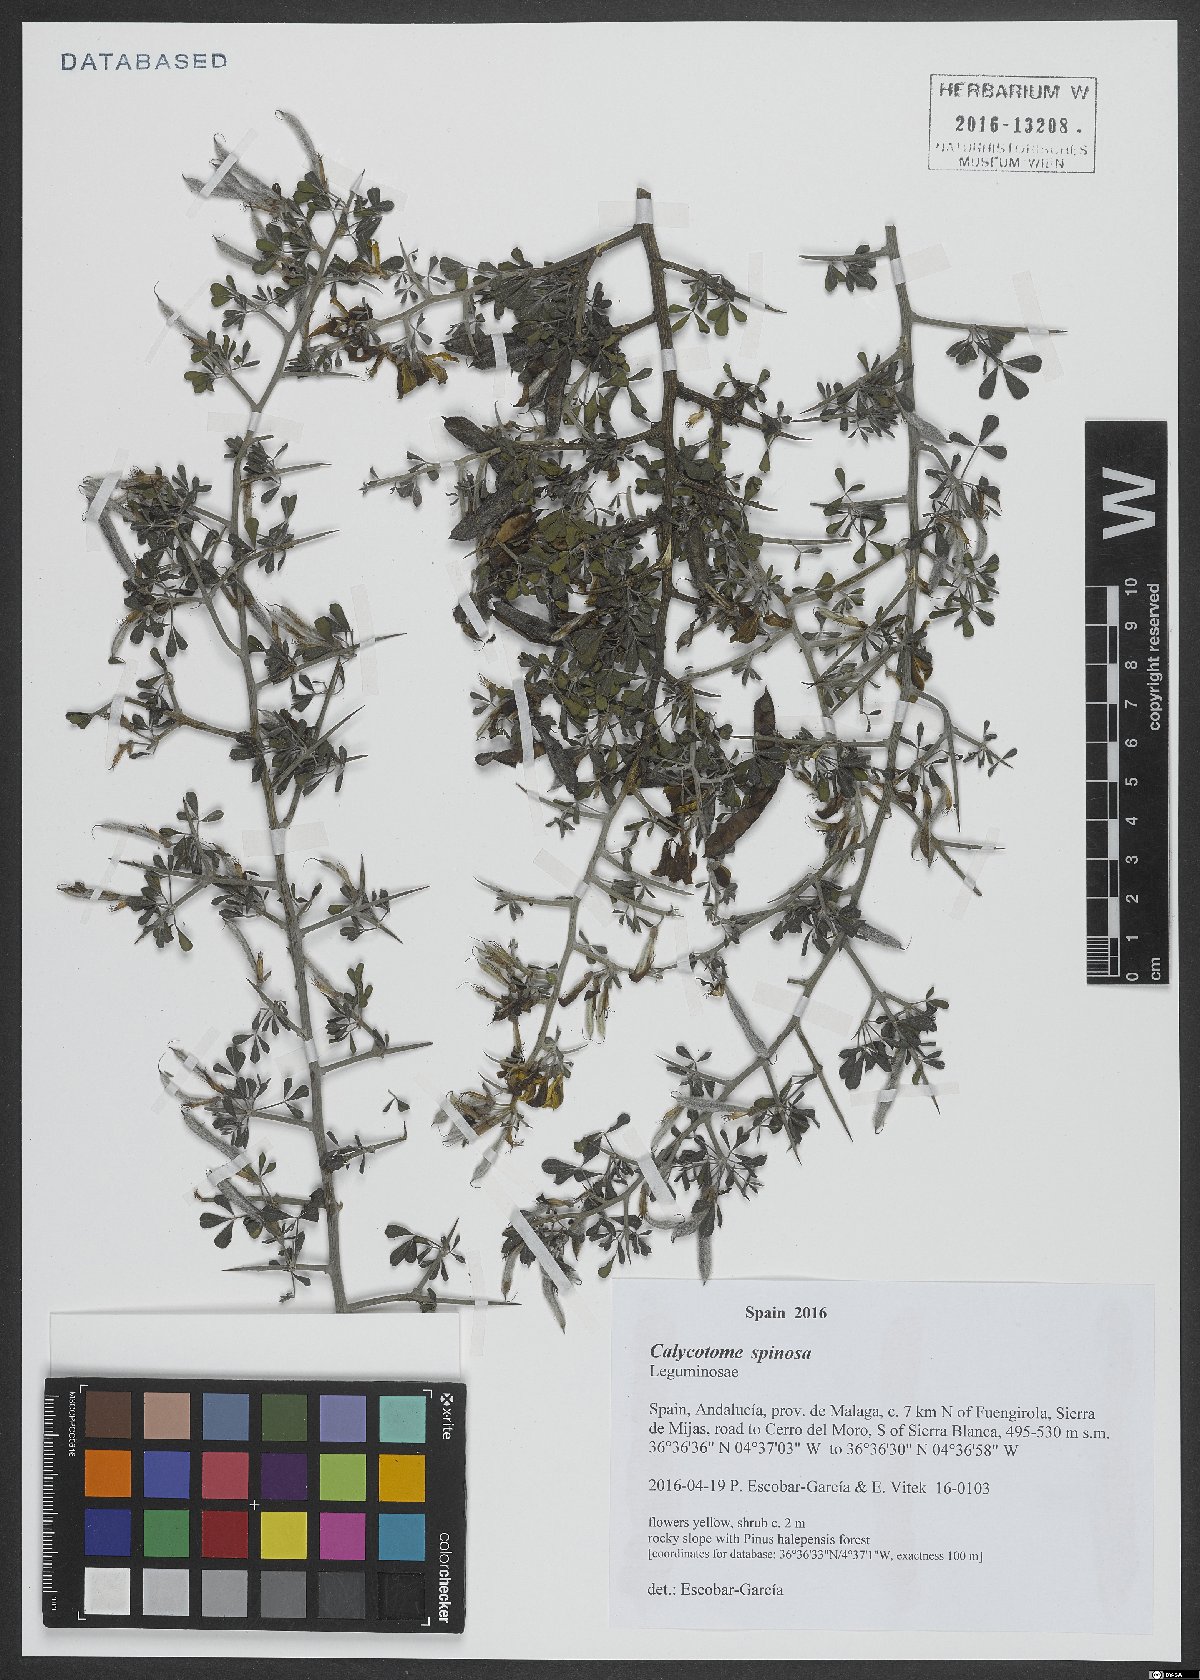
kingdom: Plantae
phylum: Tracheophyta
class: Magnoliopsida
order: Fabales
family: Fabaceae
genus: Calicotome
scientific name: Calicotome spinosa
